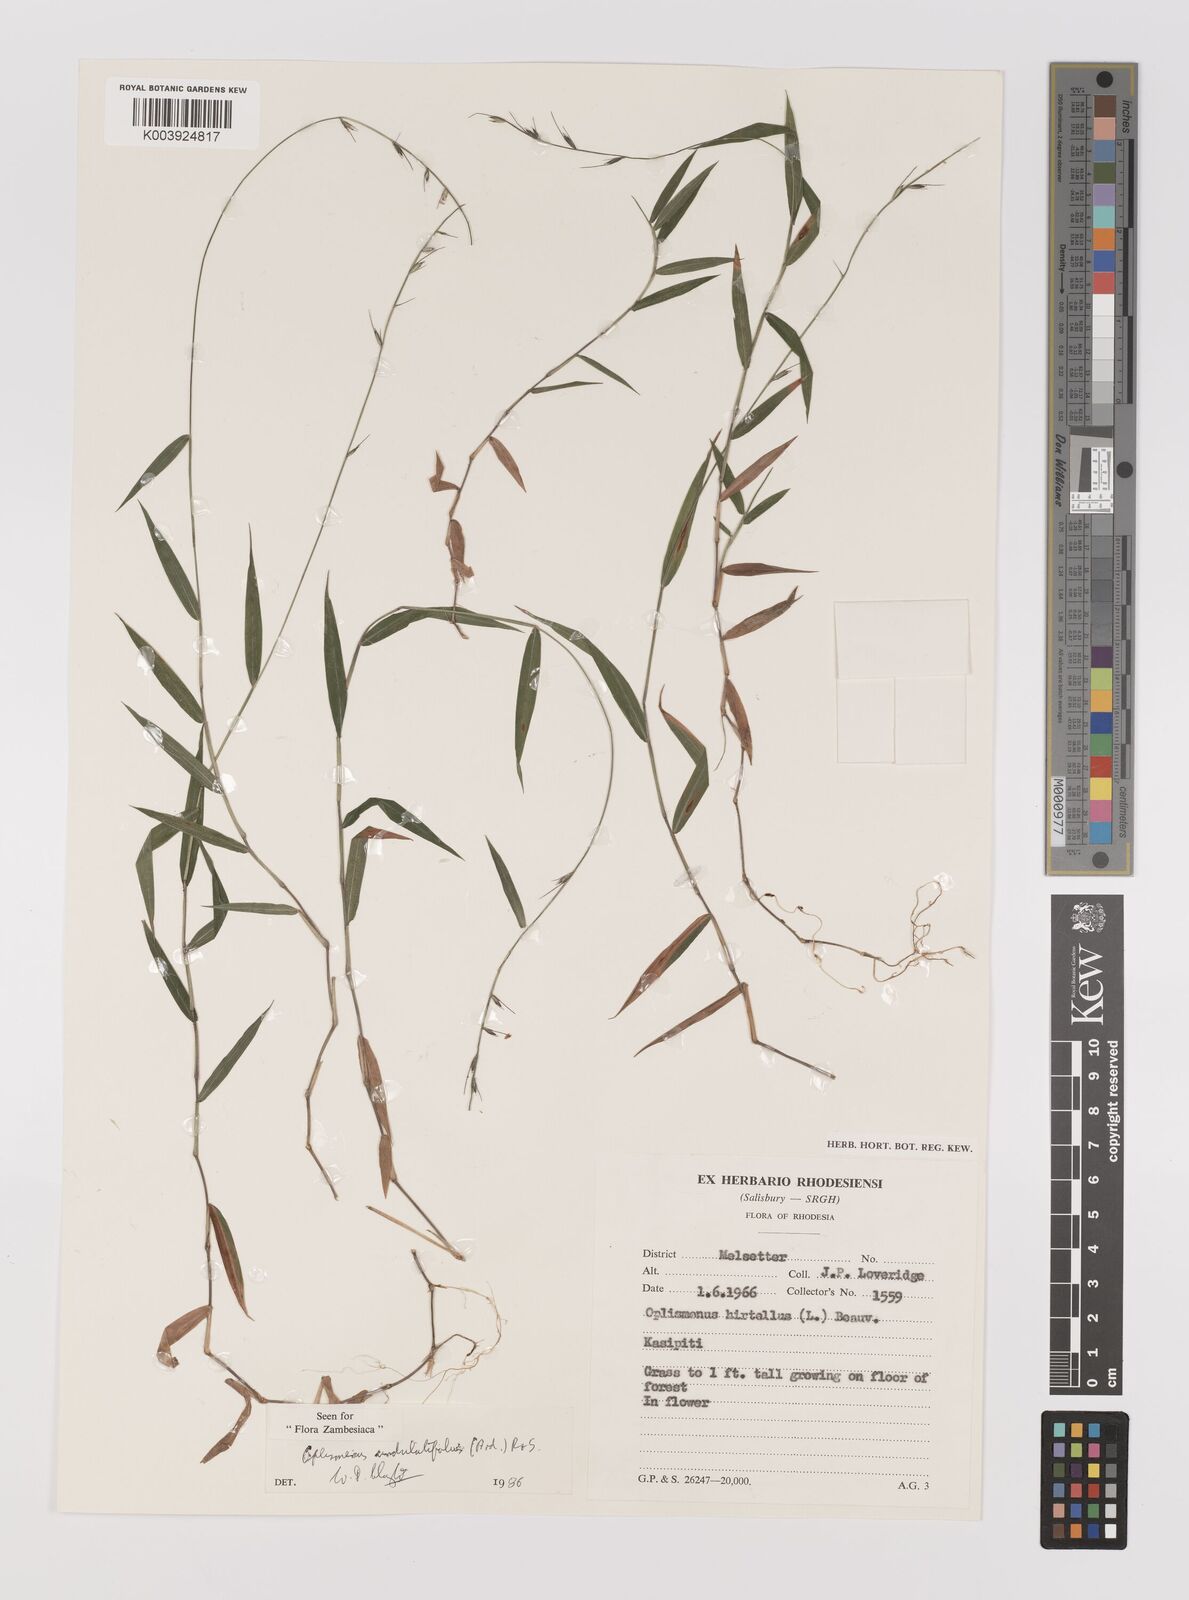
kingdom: Plantae
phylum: Tracheophyta
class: Liliopsida
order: Poales
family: Poaceae
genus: Oplismenus
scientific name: Oplismenus undulatifolius
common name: Wavyleaf basketgrass
